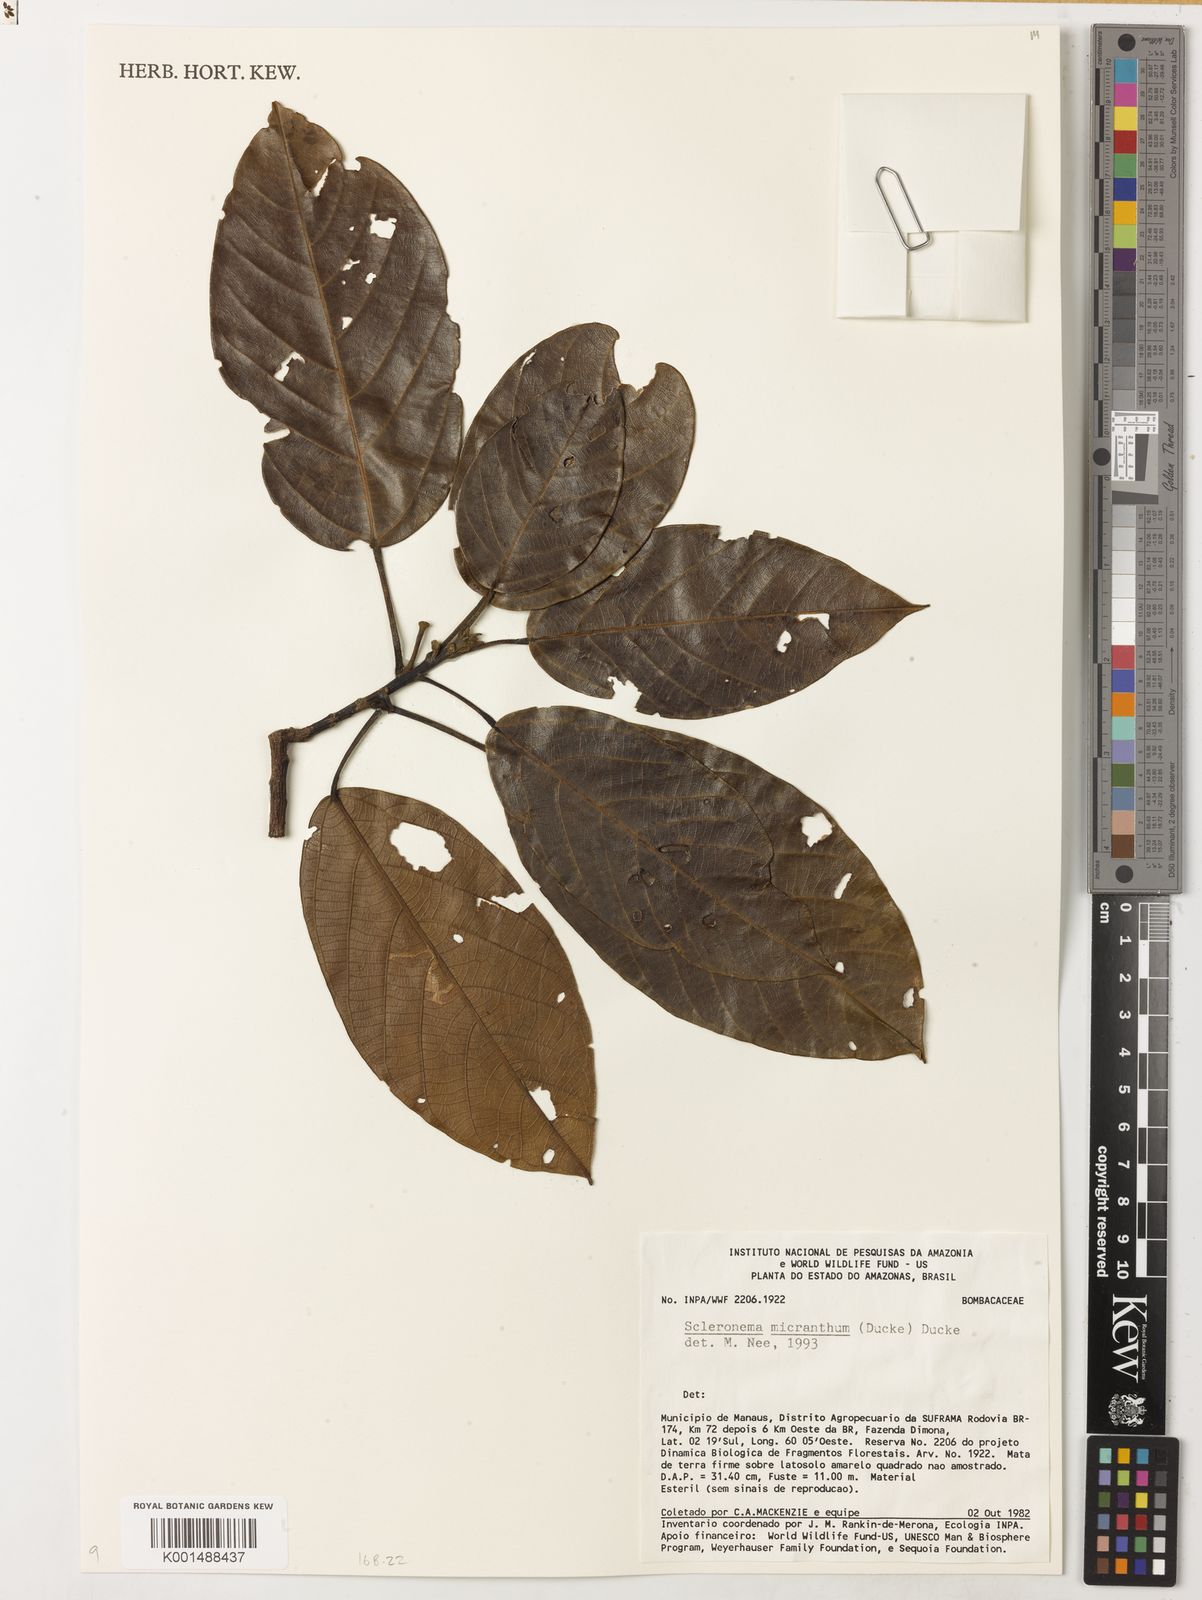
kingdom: Plantae
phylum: Tracheophyta
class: Magnoliopsida
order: Malvales
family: Malvaceae
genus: Scleronema
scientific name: Scleronema micranthum
